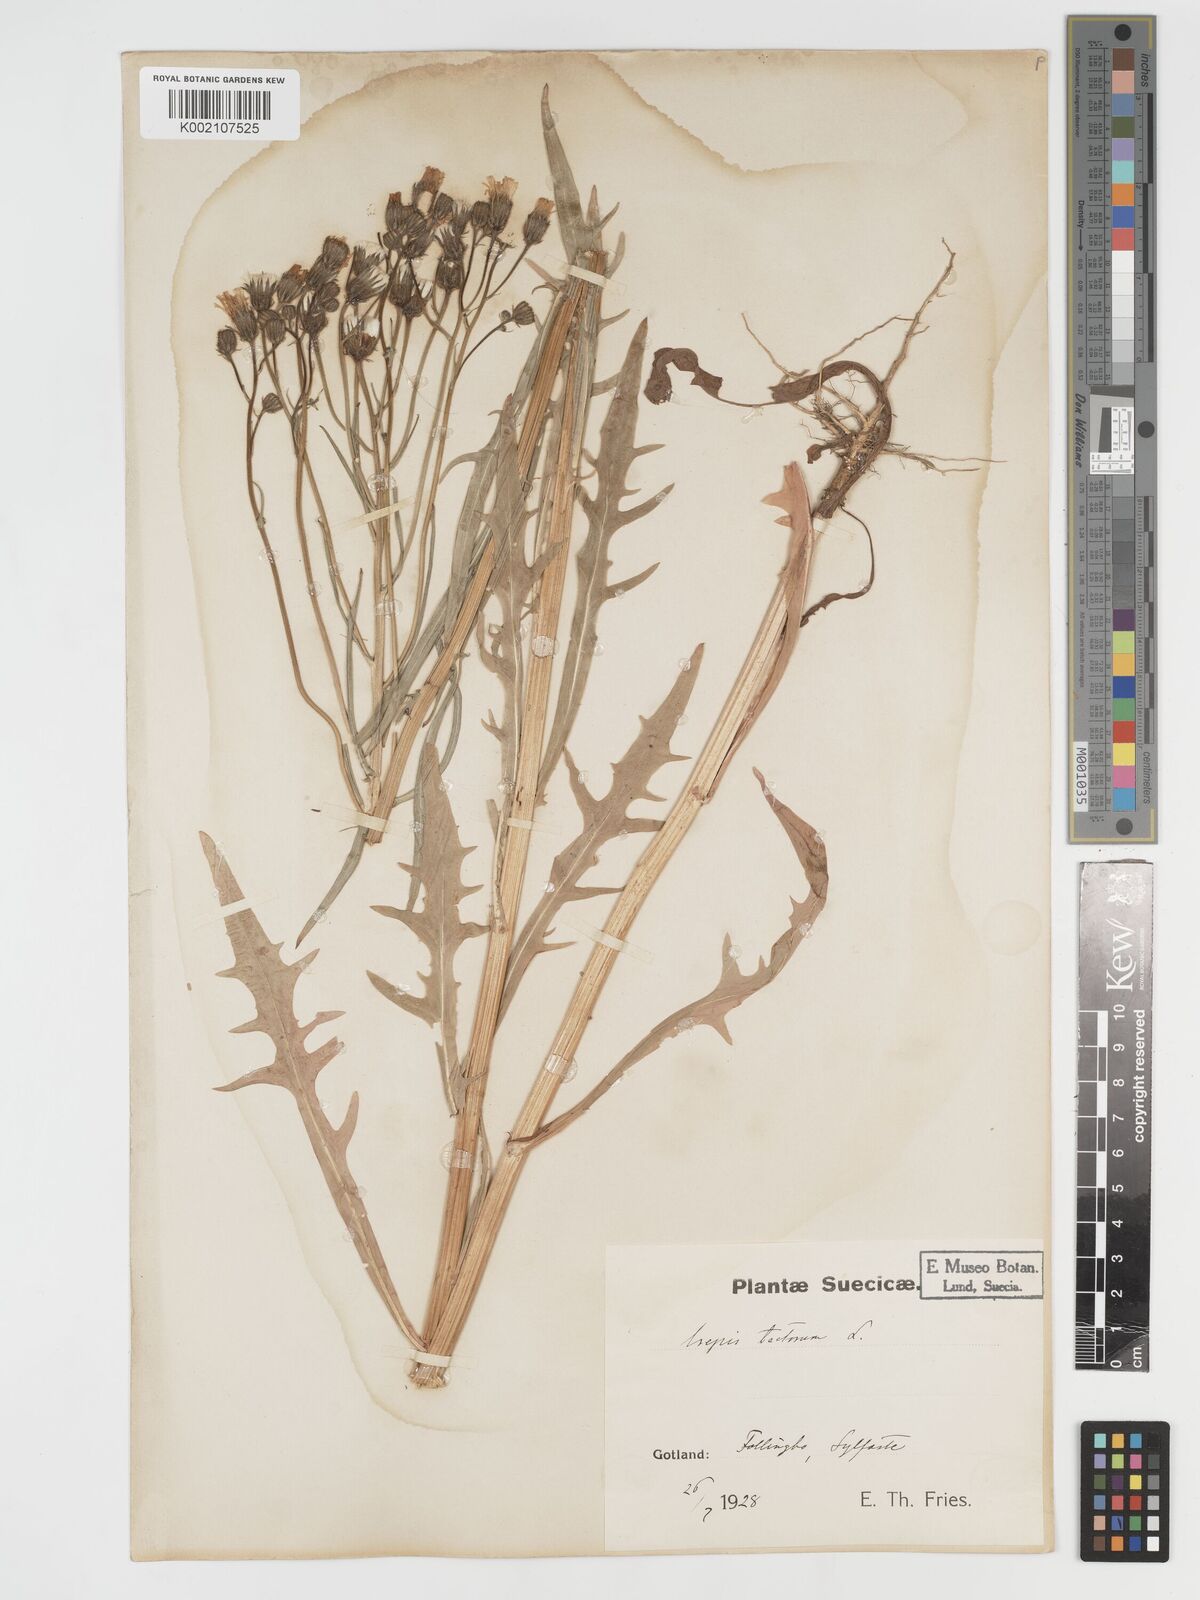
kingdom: Plantae
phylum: Tracheophyta
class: Magnoliopsida
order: Asterales
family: Asteraceae
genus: Crepis
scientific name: Crepis tectorum
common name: Narrow-leaved hawk's-beard
